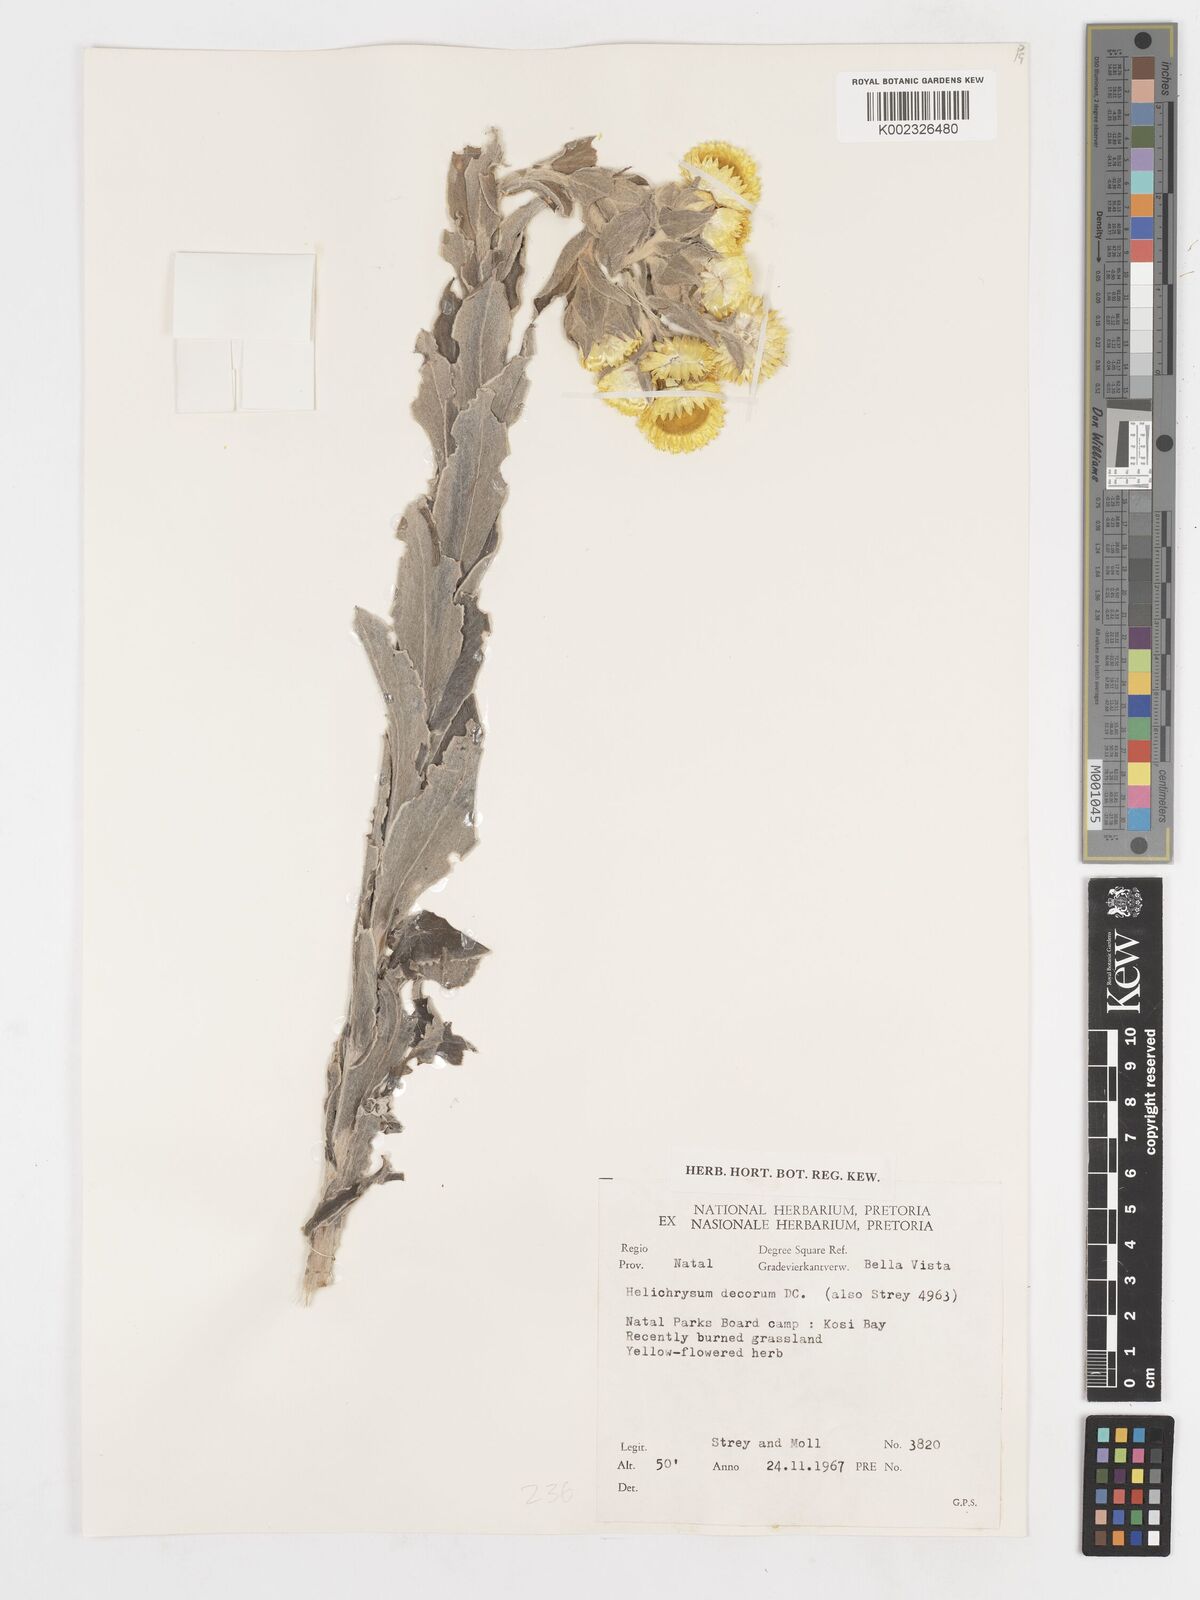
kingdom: Plantae
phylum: Tracheophyta
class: Magnoliopsida
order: Asterales
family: Asteraceae
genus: Helichrysum
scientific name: Helichrysum decorum
